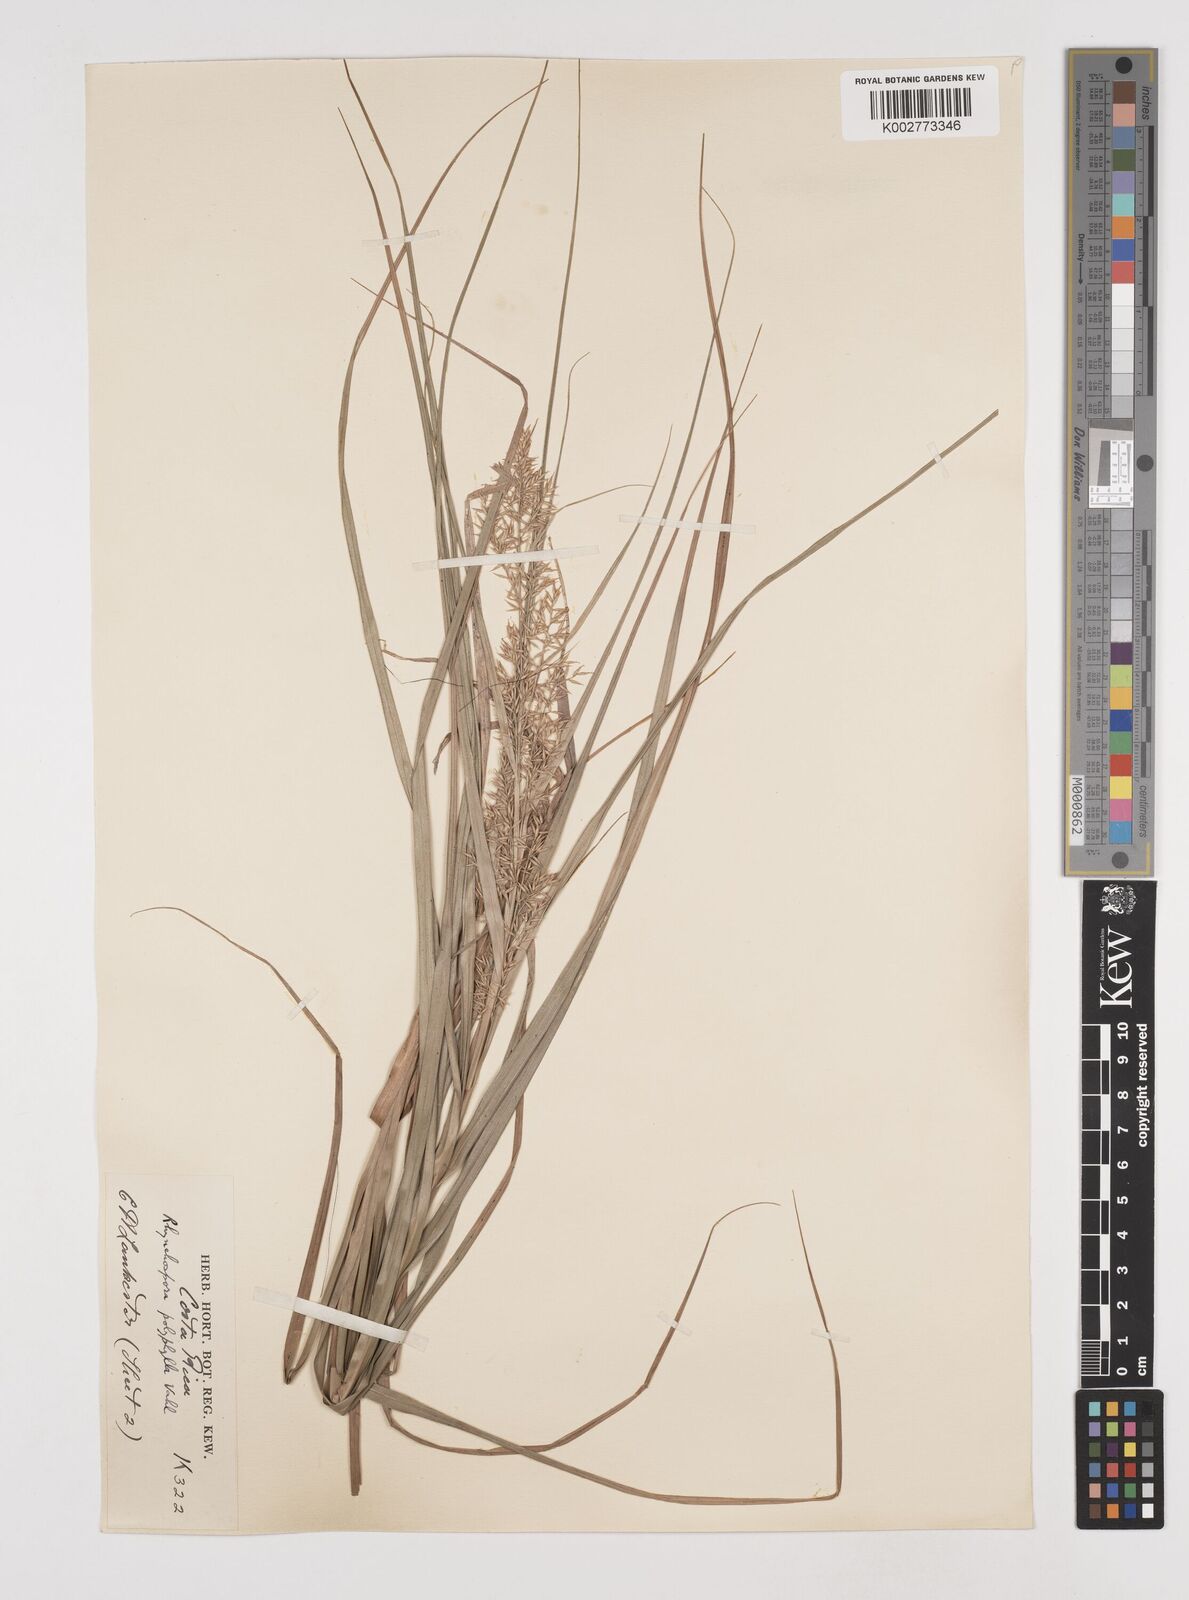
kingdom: Plantae
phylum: Tracheophyta
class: Liliopsida
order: Poales
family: Cyperaceae
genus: Rhynchospora
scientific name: Rhynchospora polyphylla
